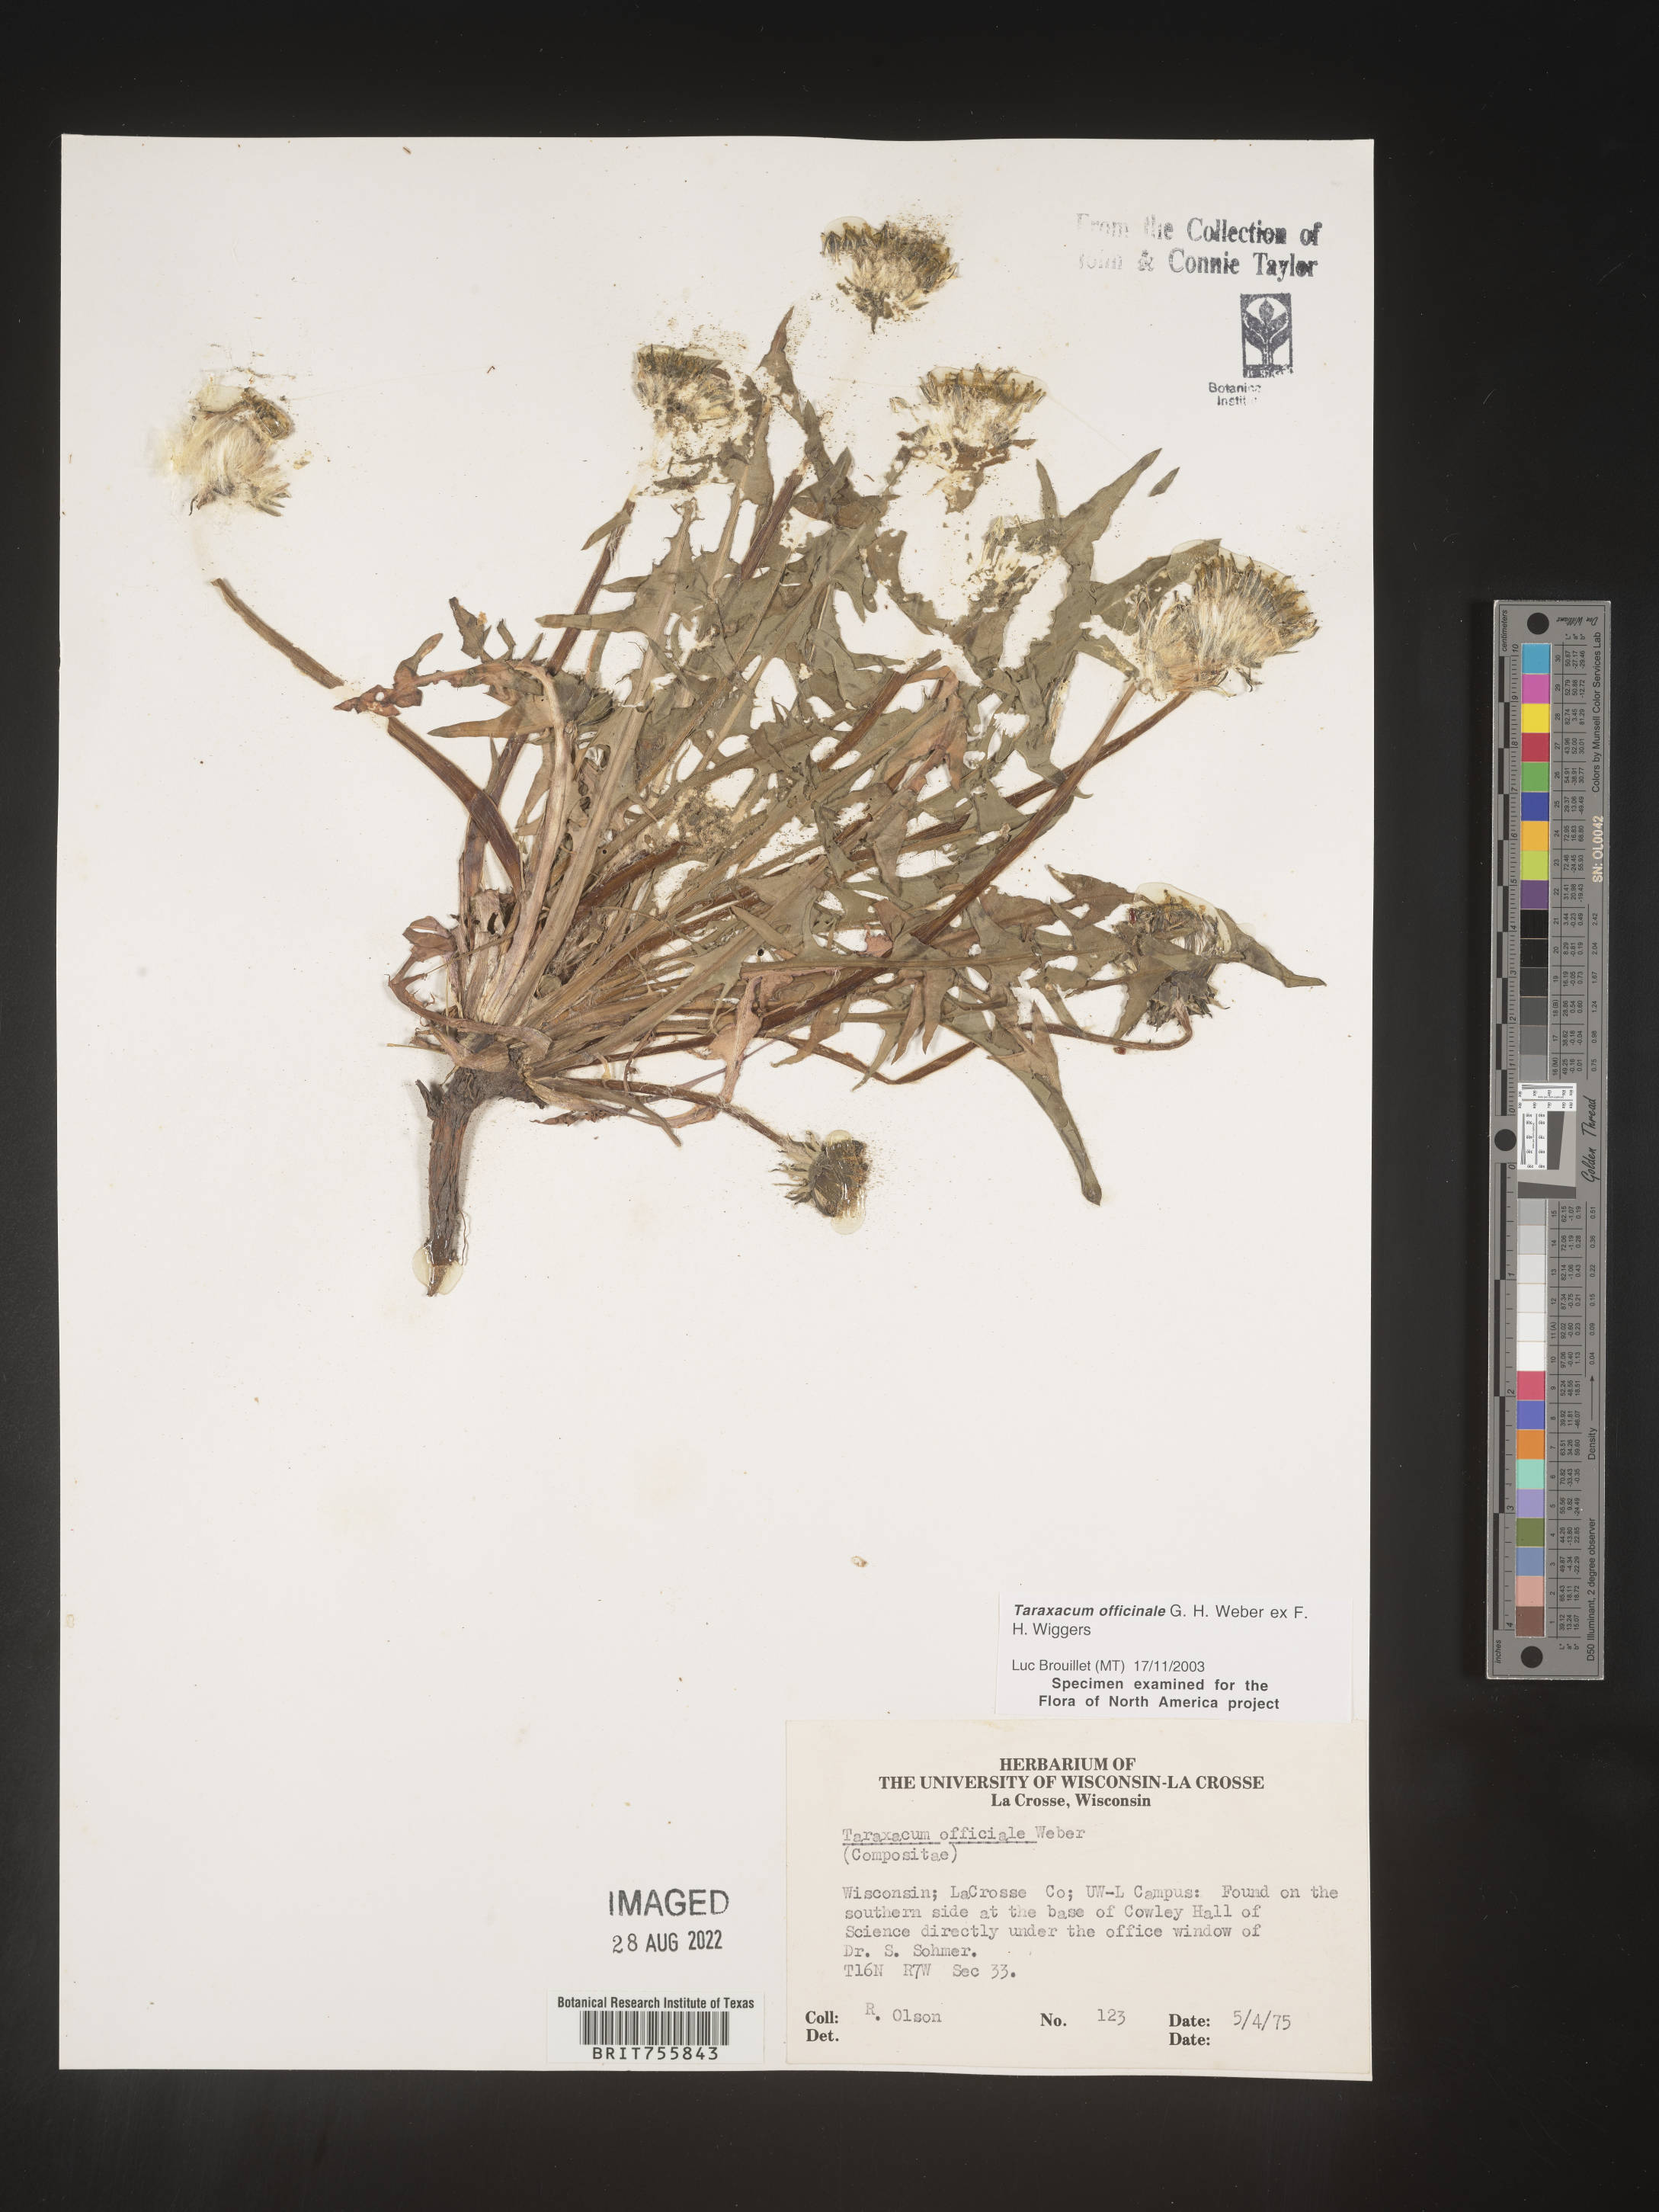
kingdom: Plantae
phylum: Tracheophyta
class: Magnoliopsida
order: Asterales
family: Asteraceae
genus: Taraxacum
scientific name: Taraxacum officinale
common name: Common dandelion
